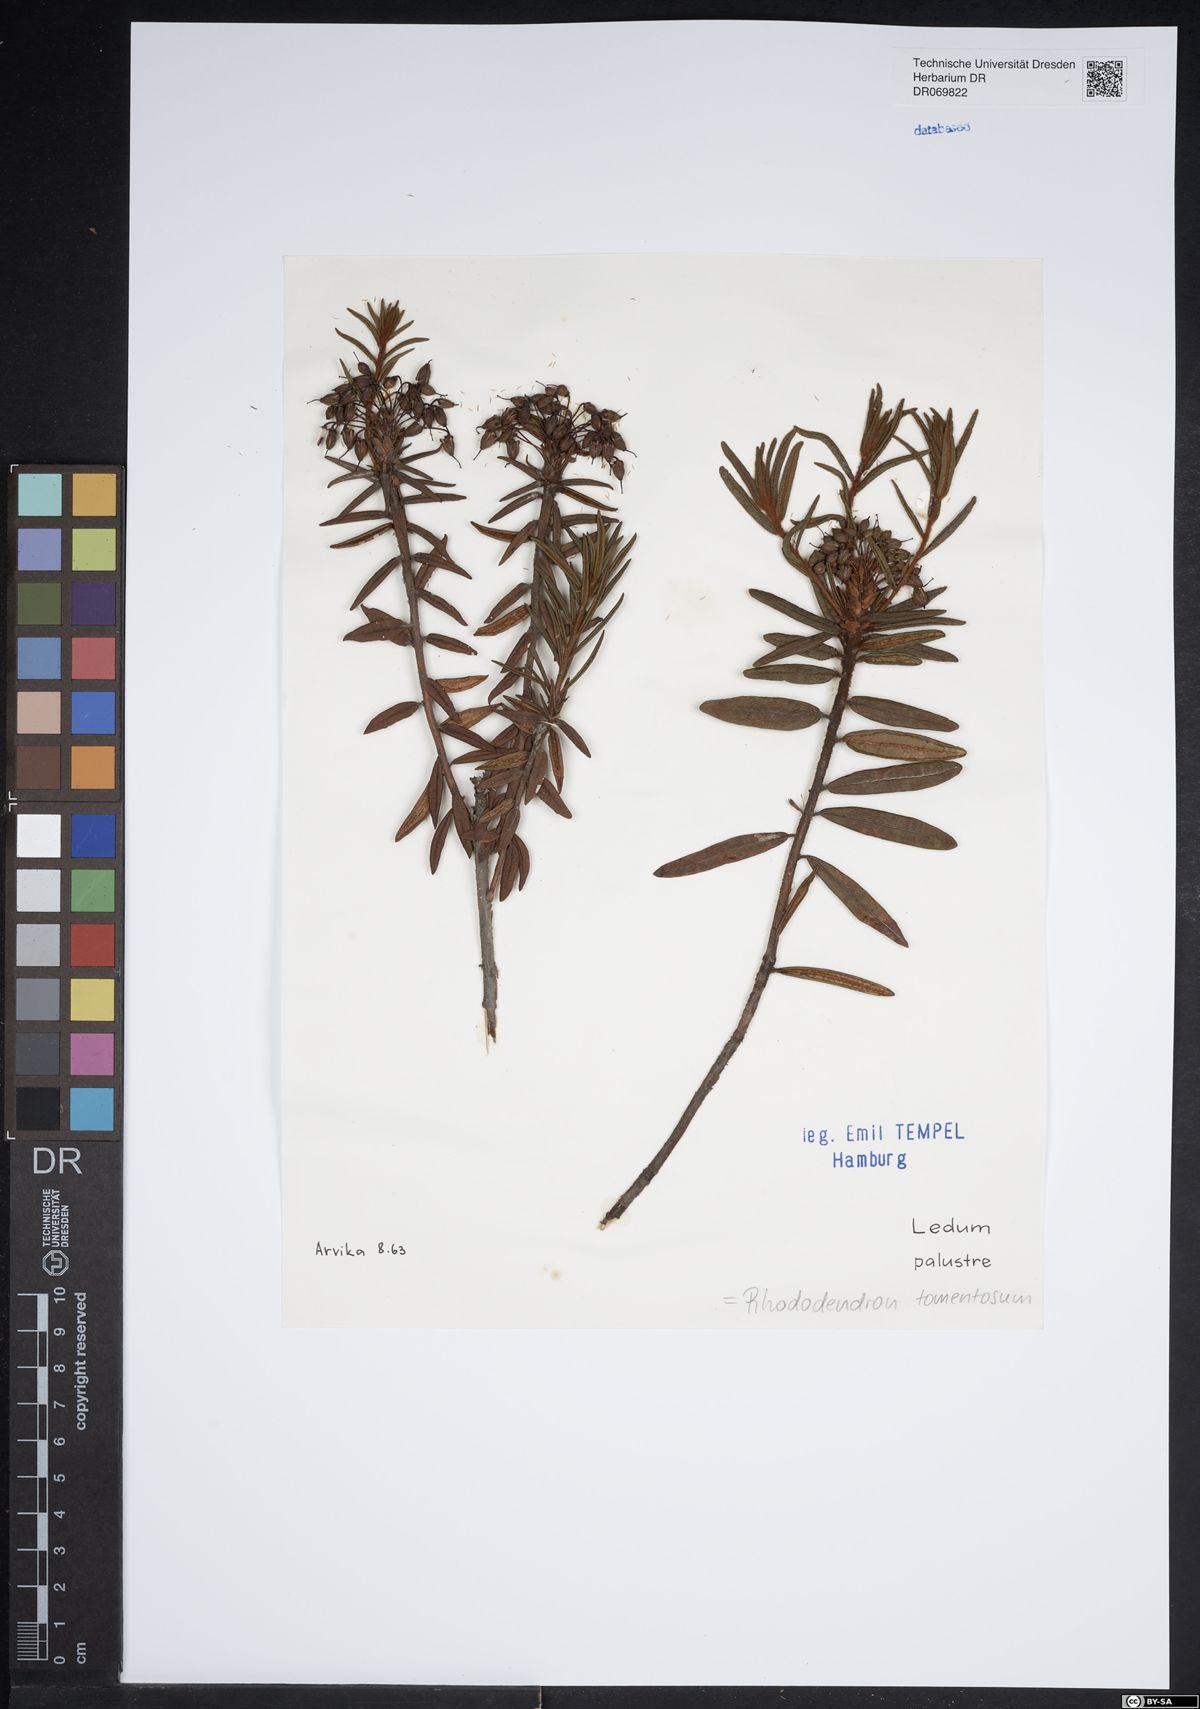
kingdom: Plantae
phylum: Tracheophyta
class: Magnoliopsida
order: Ericales
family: Ericaceae
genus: Rhododendron
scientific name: Rhododendron tomentosum
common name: Marsh labrador tea
